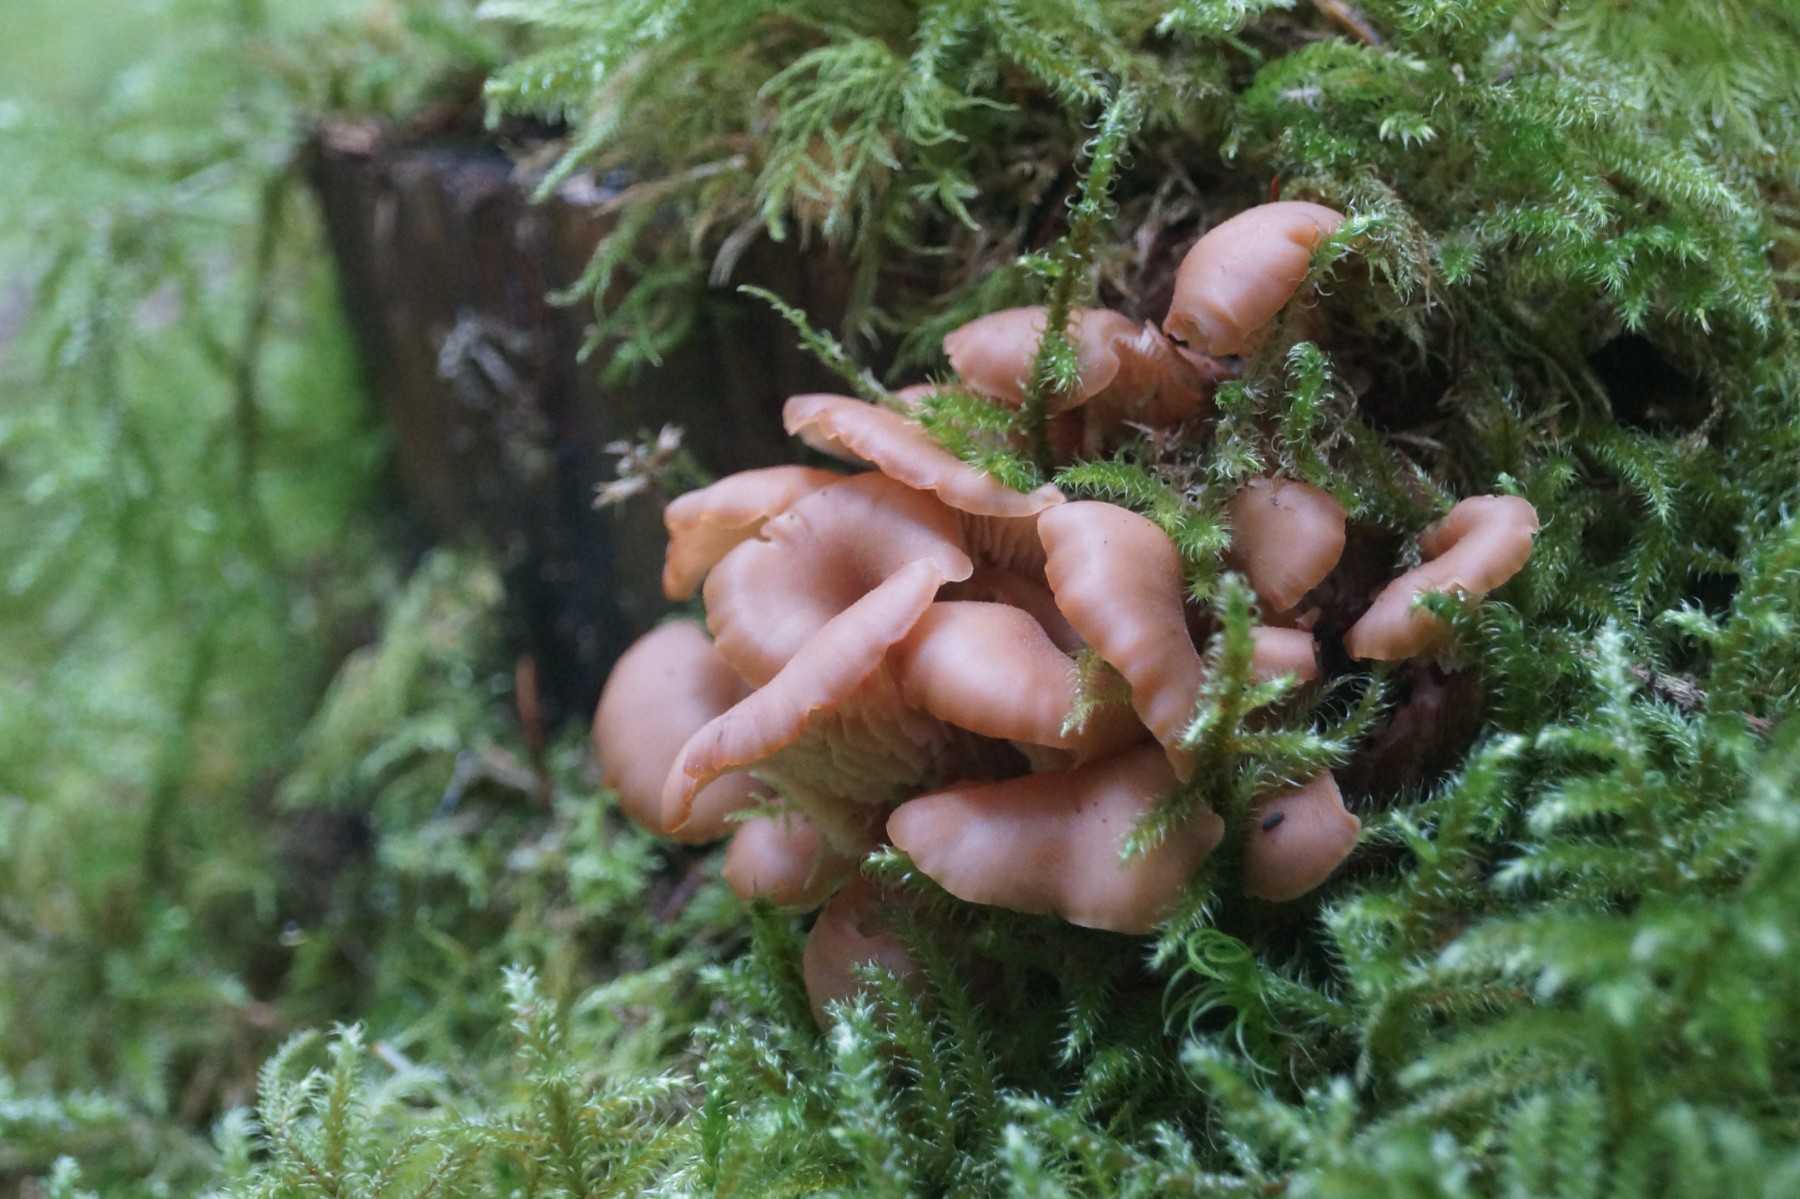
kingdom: Fungi
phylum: Basidiomycota
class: Agaricomycetes
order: Russulales
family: Auriscalpiaceae
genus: Lentinellus
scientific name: Lentinellus cochleatus
